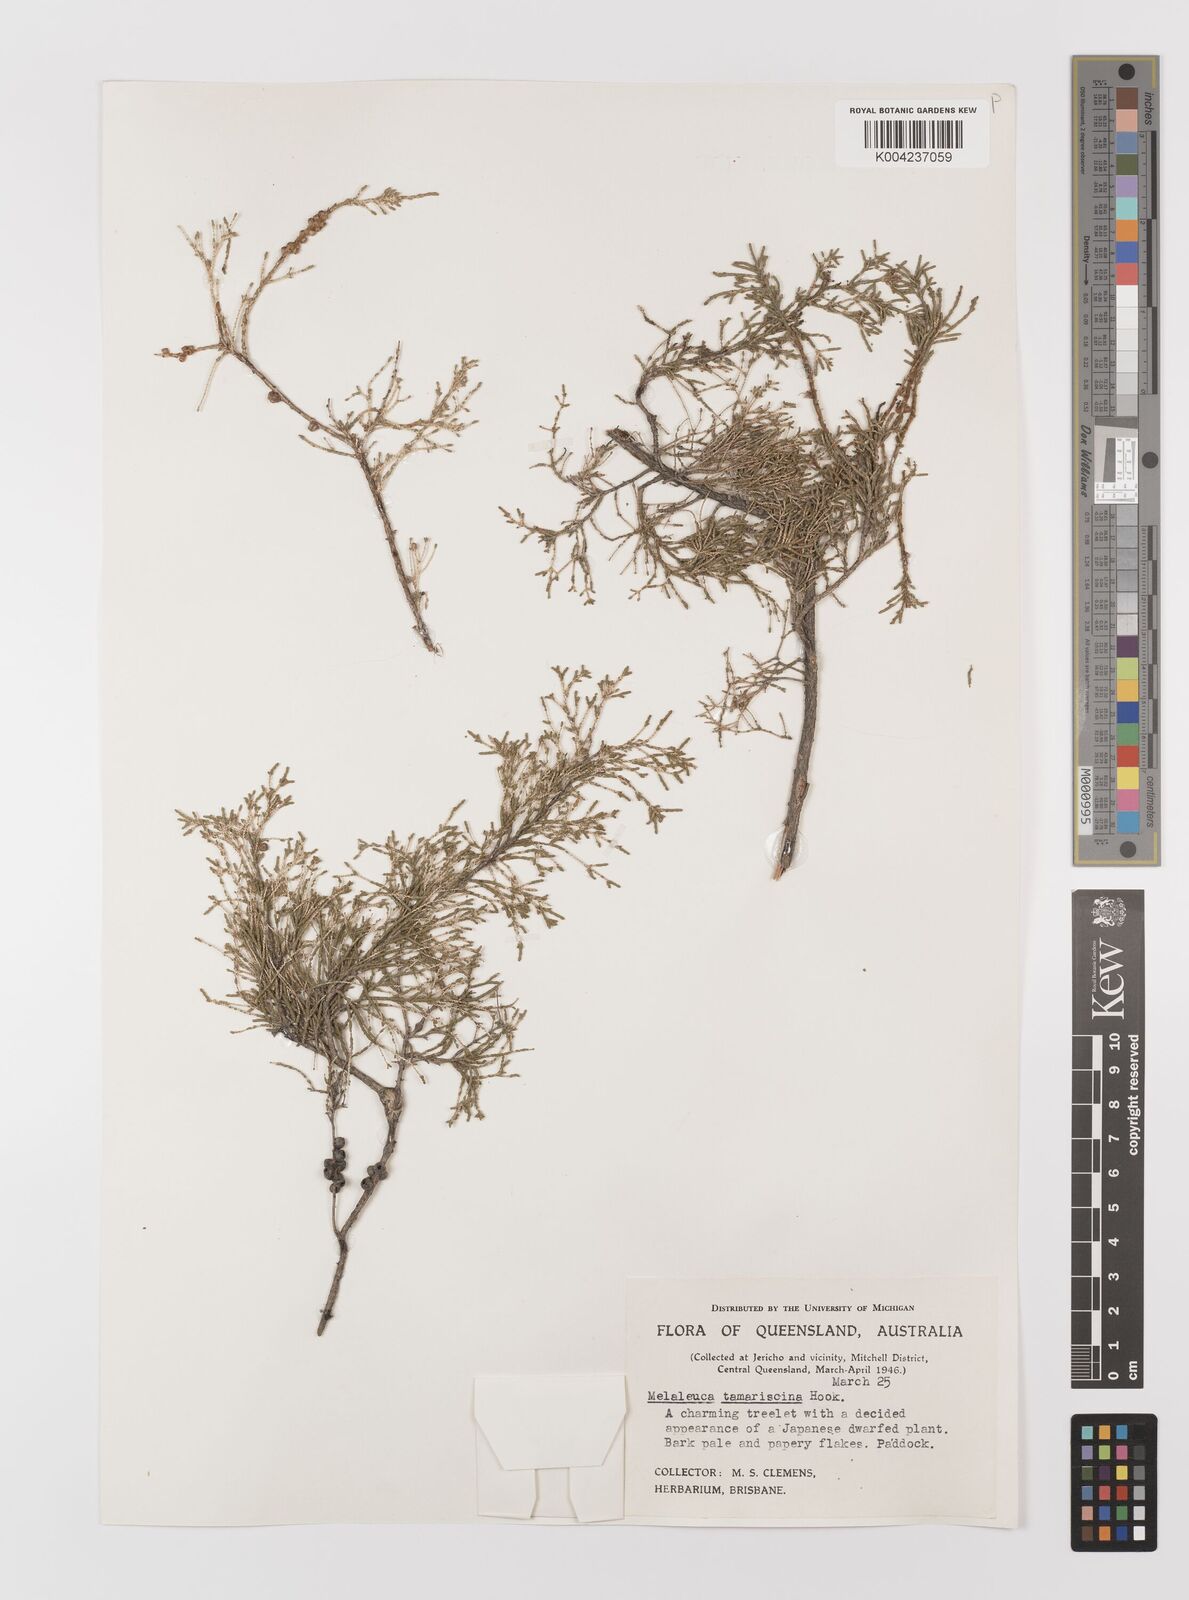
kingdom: Plantae
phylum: Tracheophyta
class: Magnoliopsida
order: Myrtales
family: Myrtaceae
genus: Melaleuca
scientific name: Melaleuca tamariscina
